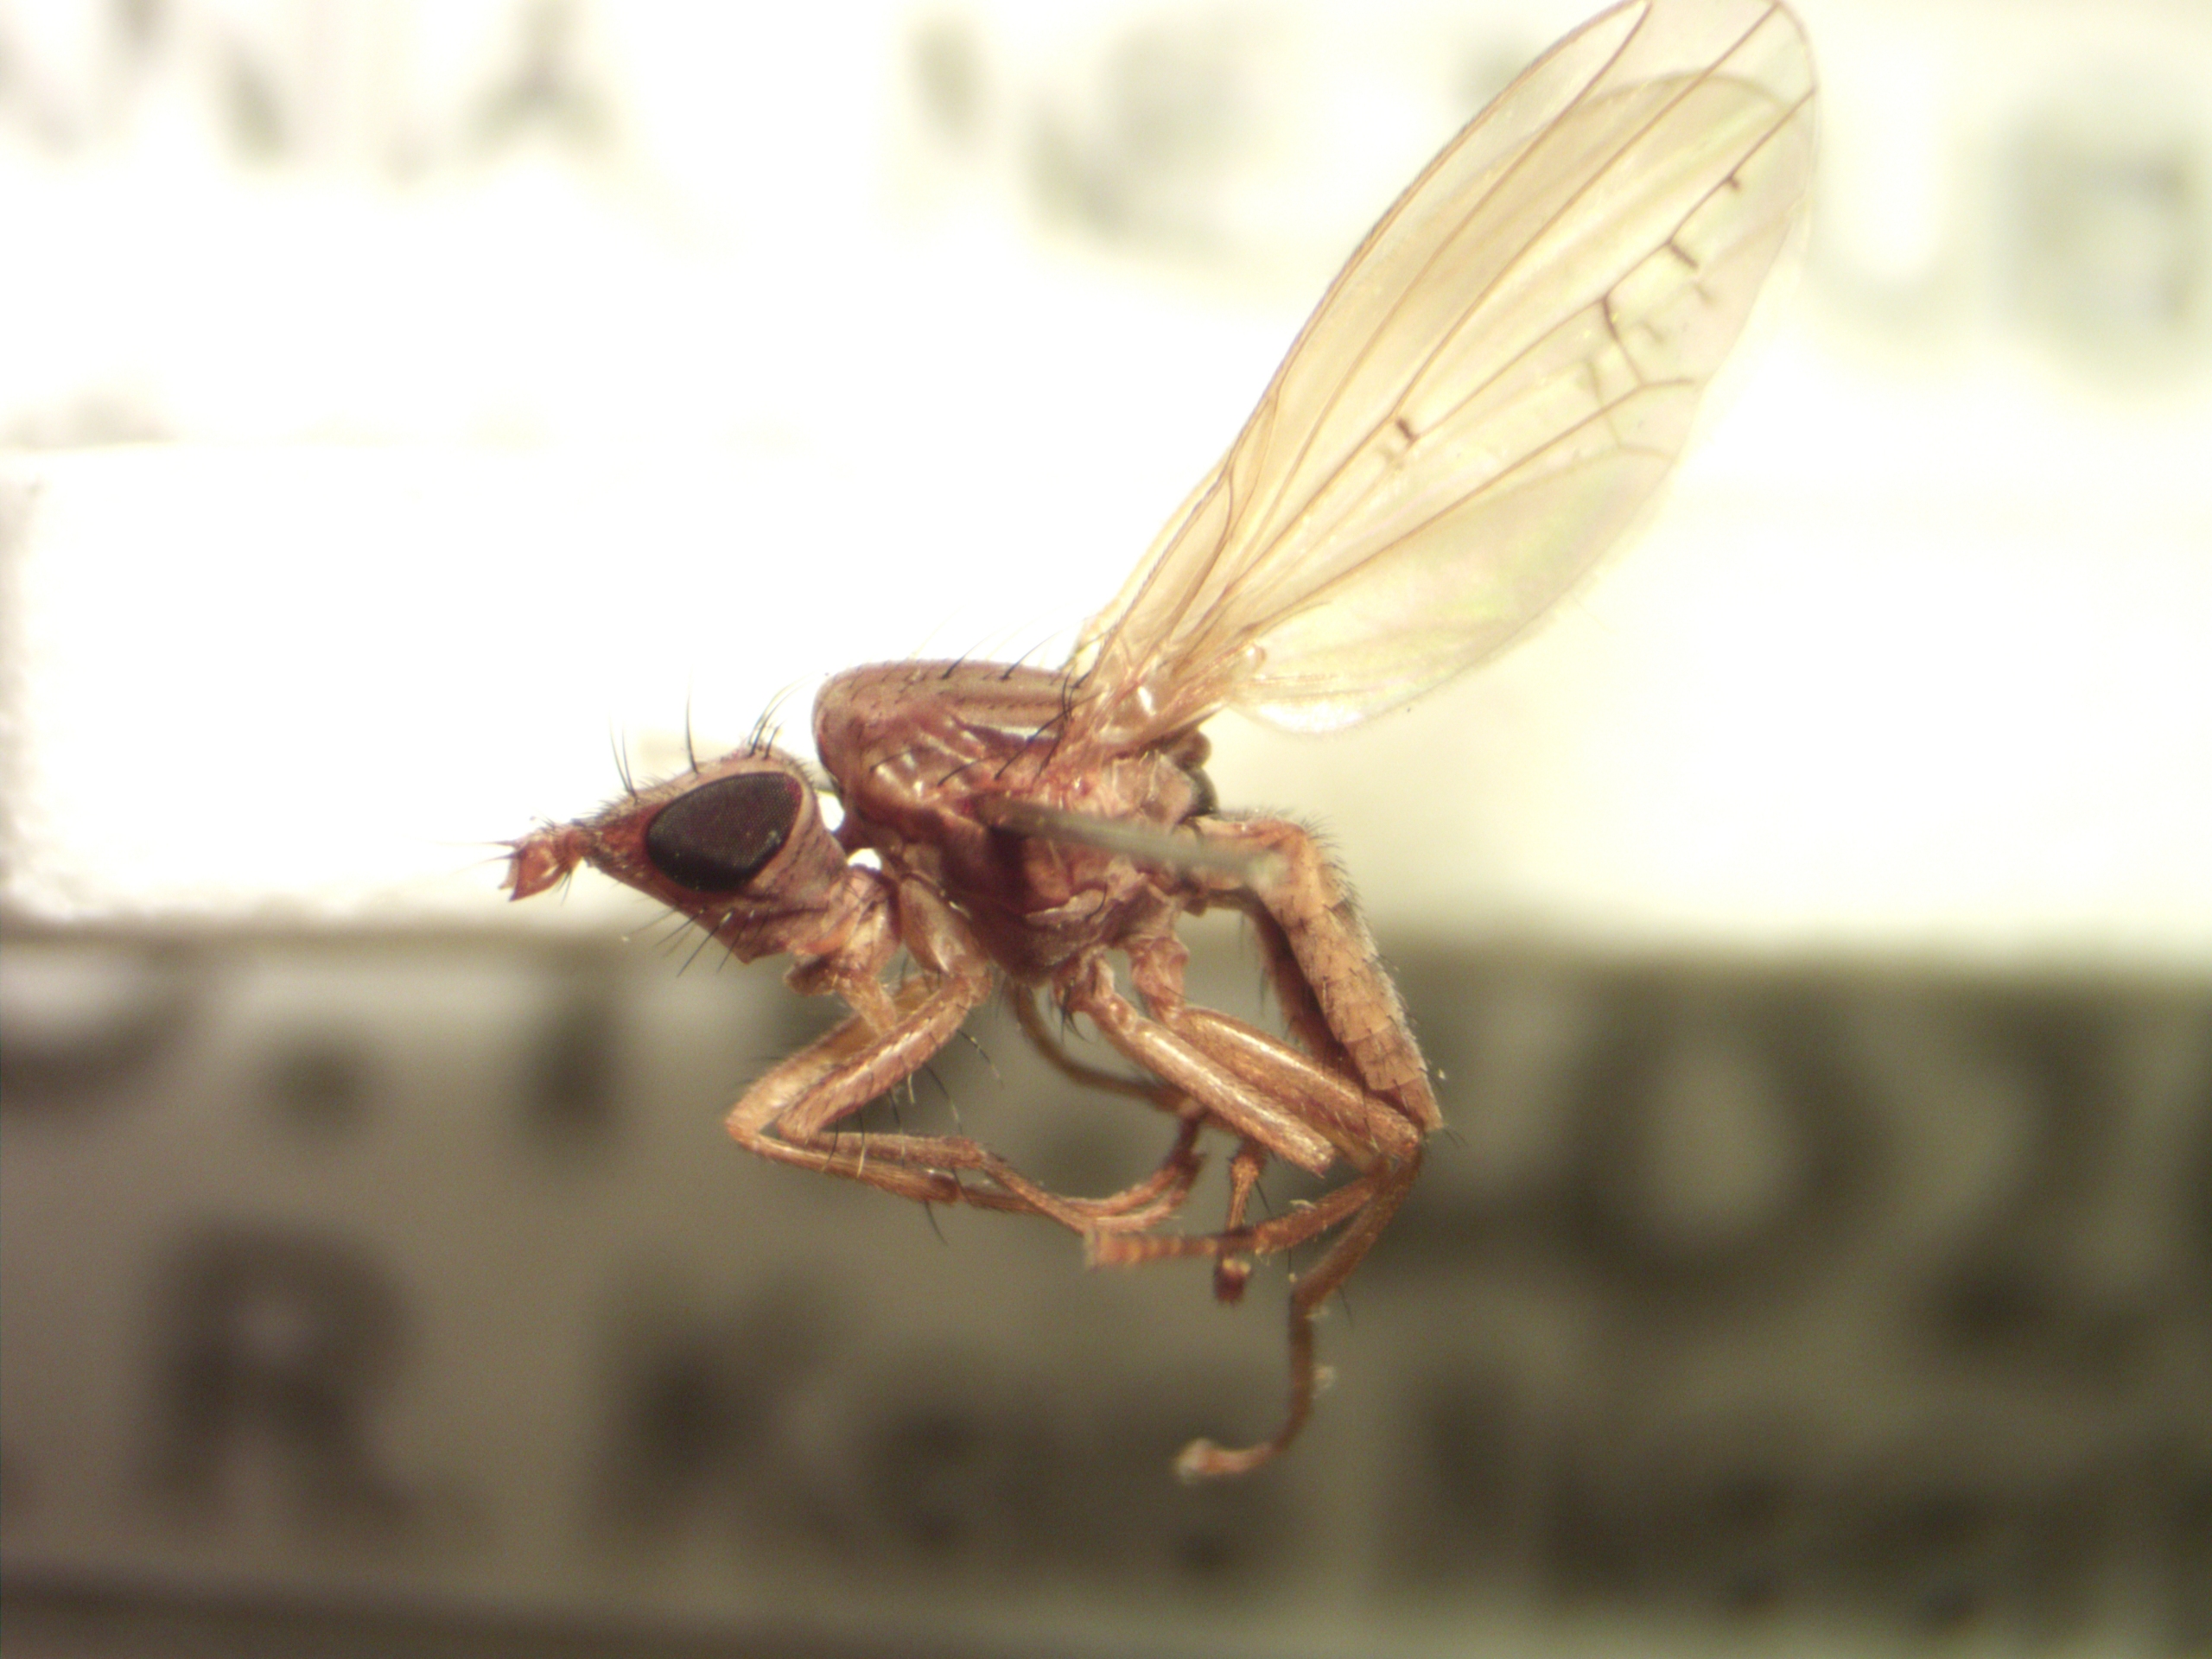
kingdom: Animalia
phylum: Arthropoda
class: Insecta
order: Diptera
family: Lauxaniidae
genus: Trigonometopus
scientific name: Trigonometopus frontalis
